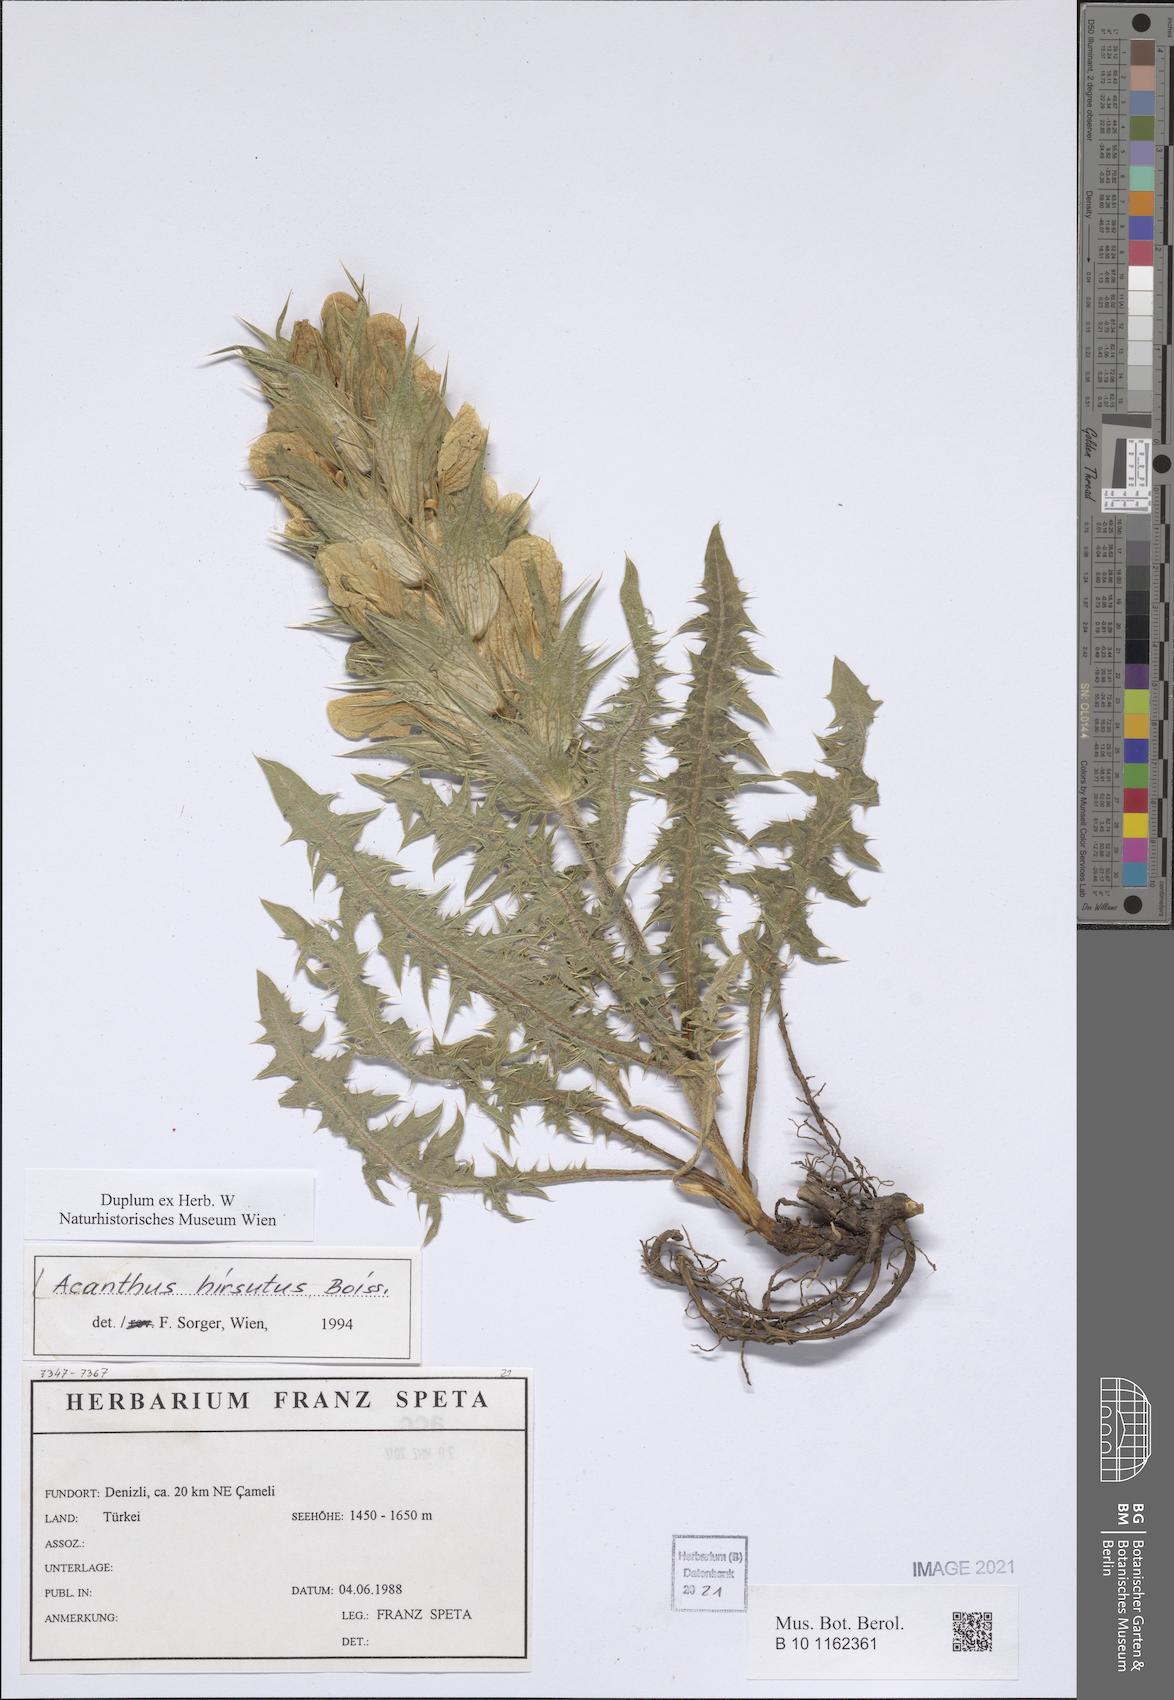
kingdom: Plantae
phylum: Tracheophyta
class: Magnoliopsida
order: Lamiales
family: Acanthaceae
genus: Acanthus
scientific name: Acanthus hirsutus
